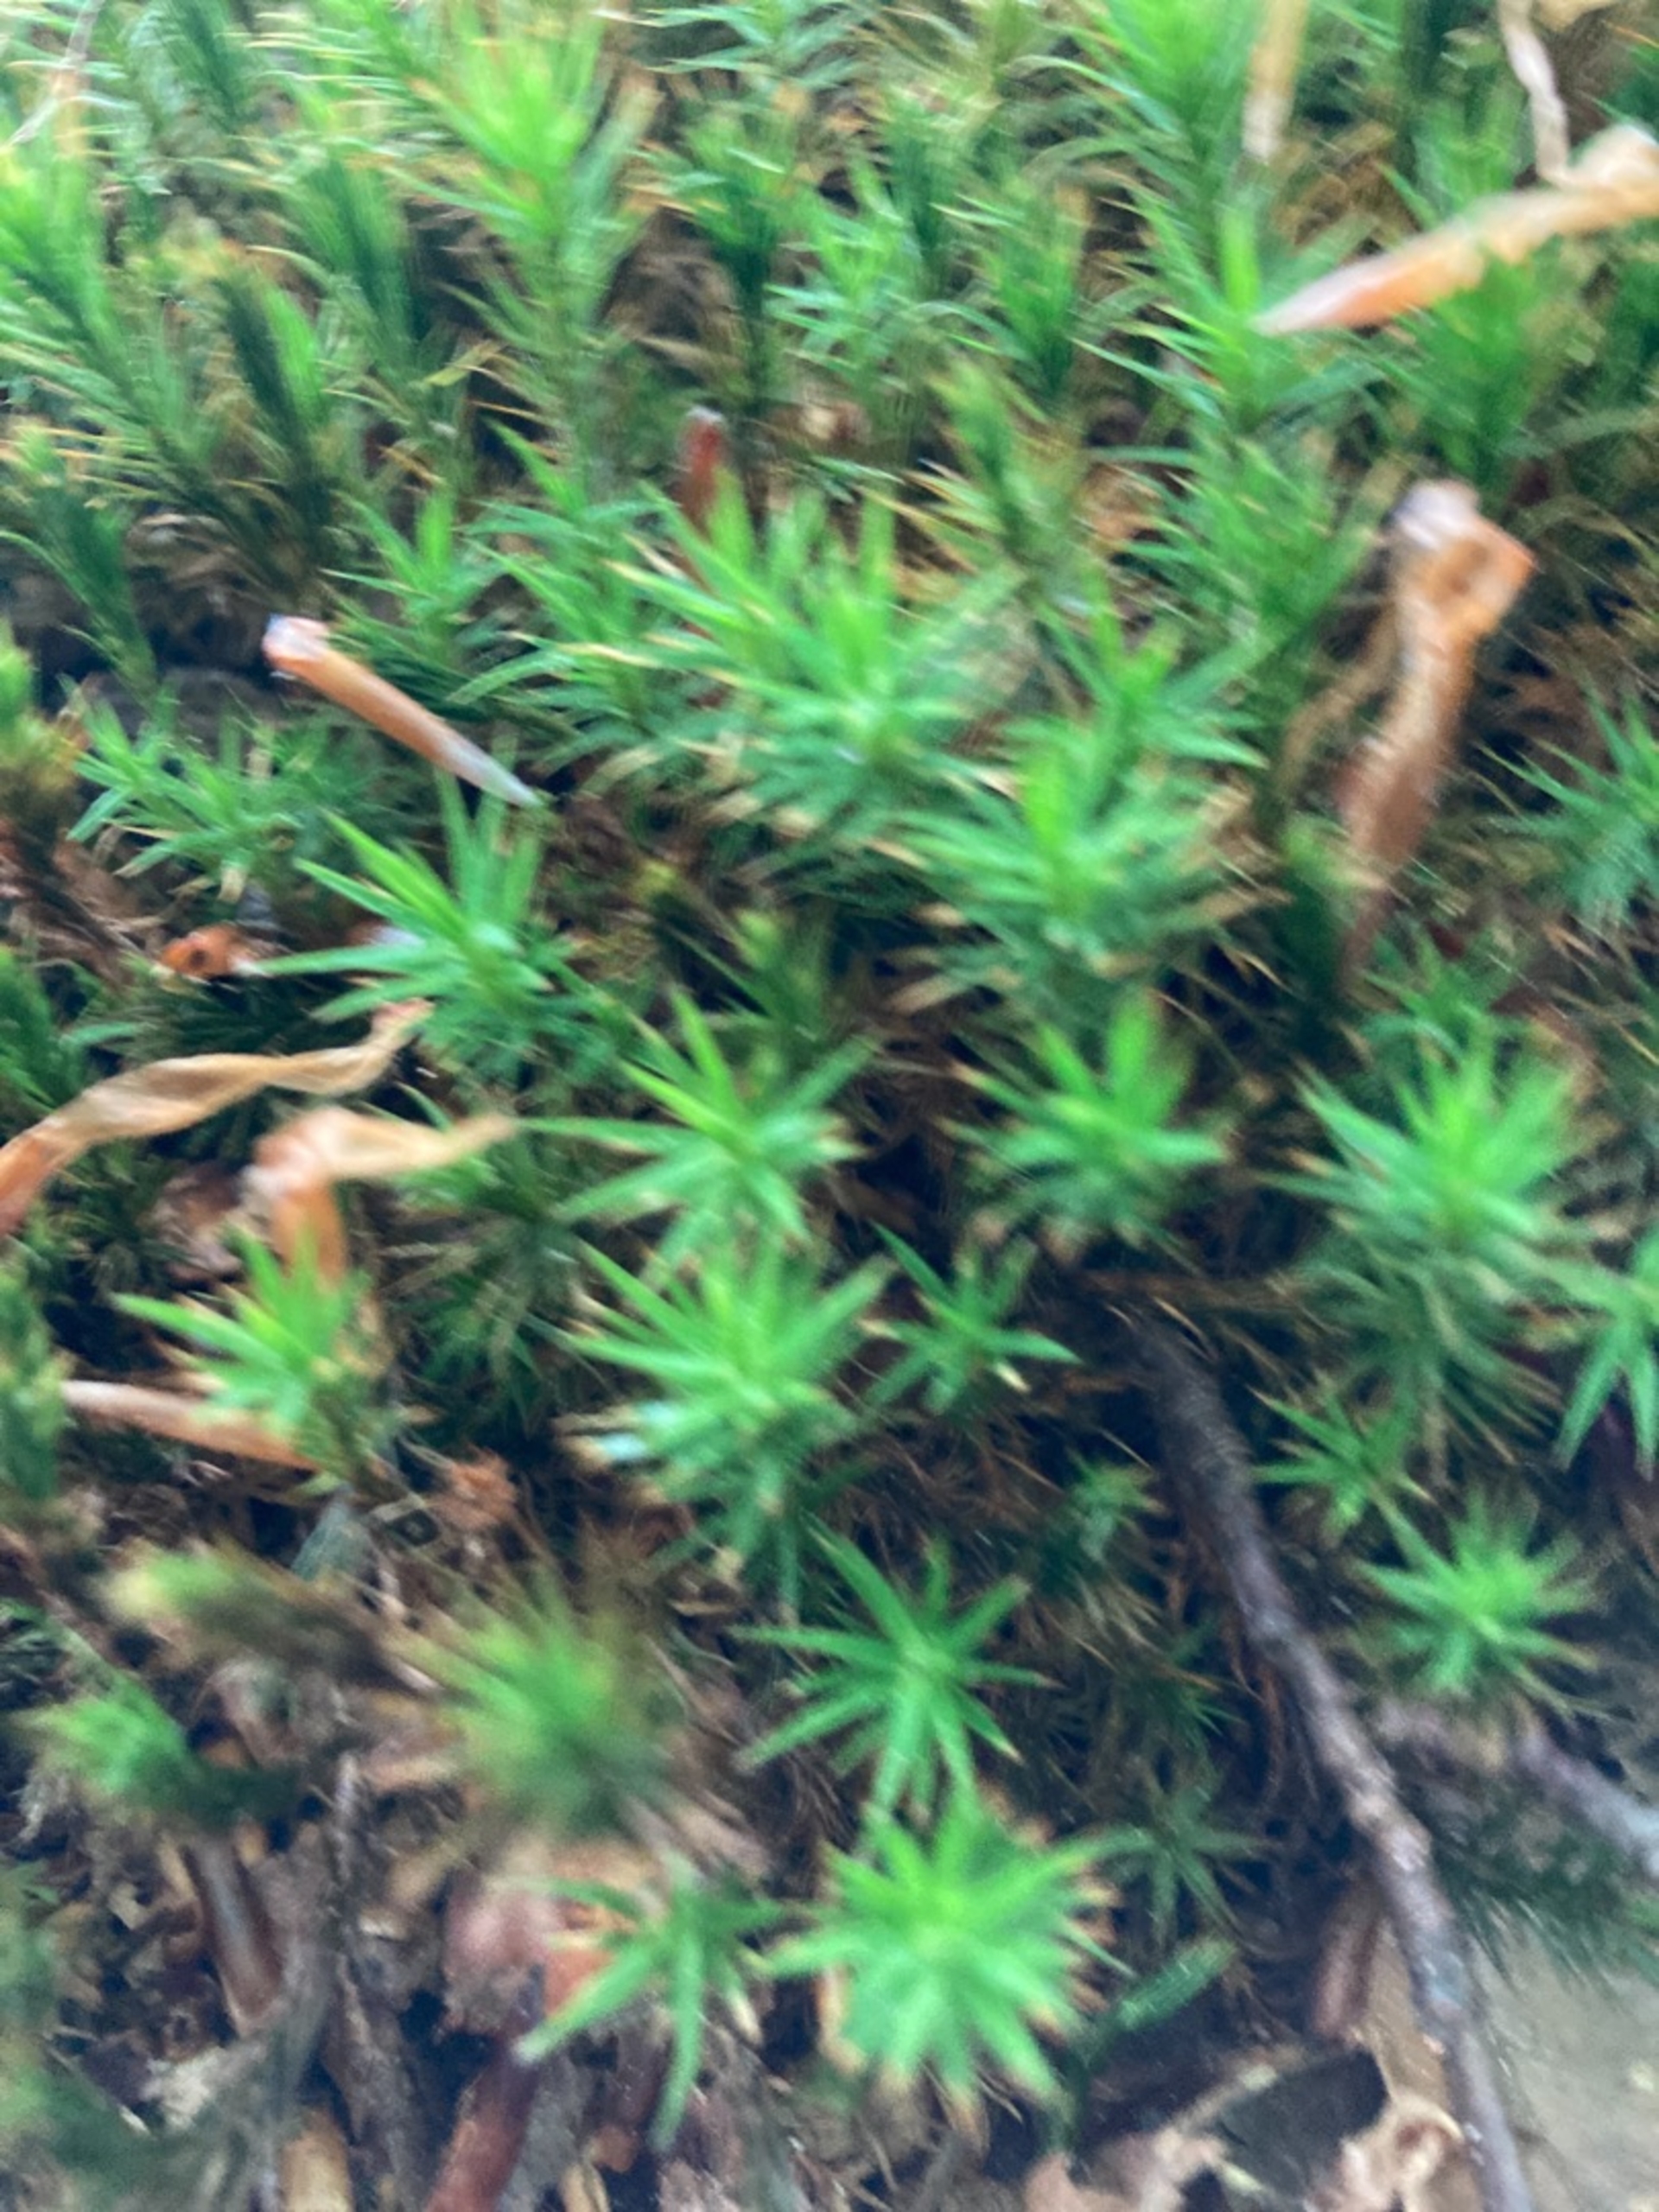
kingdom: Plantae
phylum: Bryophyta
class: Polytrichopsida
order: Polytrichales
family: Polytrichaceae
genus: Polytrichum
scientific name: Polytrichum formosum
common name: Skov-jomfruhår
